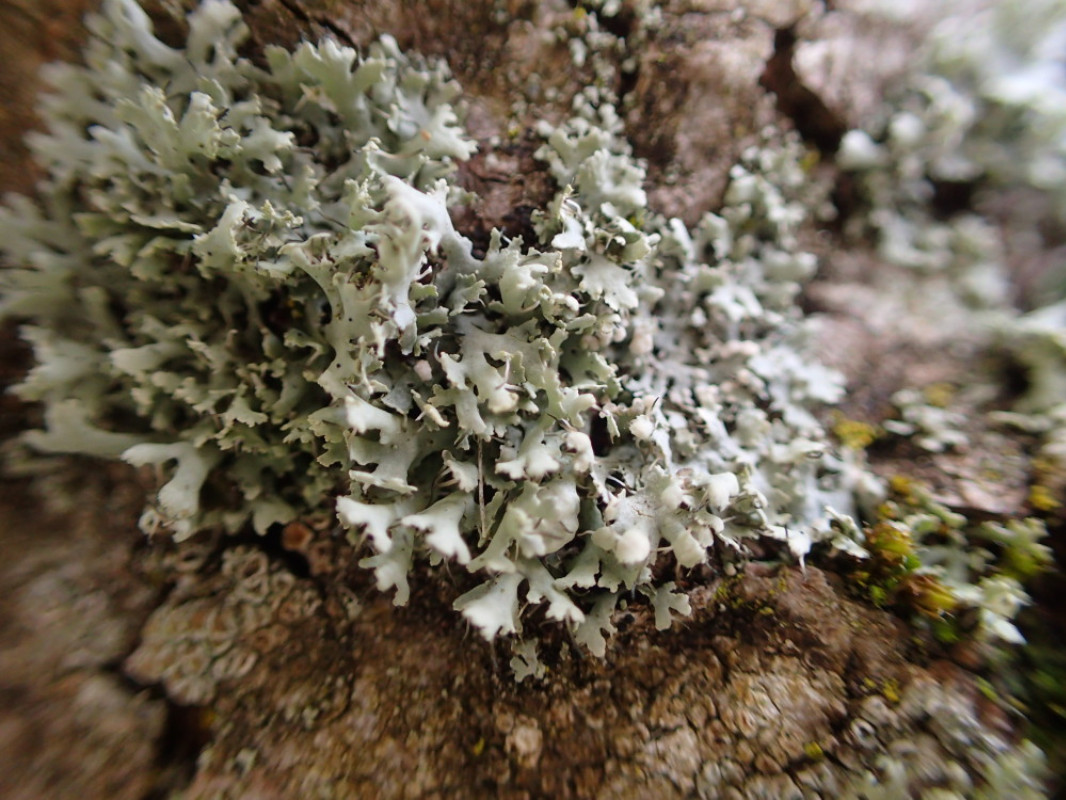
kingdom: Fungi
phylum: Ascomycota
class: Lecanoromycetes
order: Caliciales
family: Physciaceae
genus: Physcia
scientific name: Physcia adscendens
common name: hætte-rosetlav
